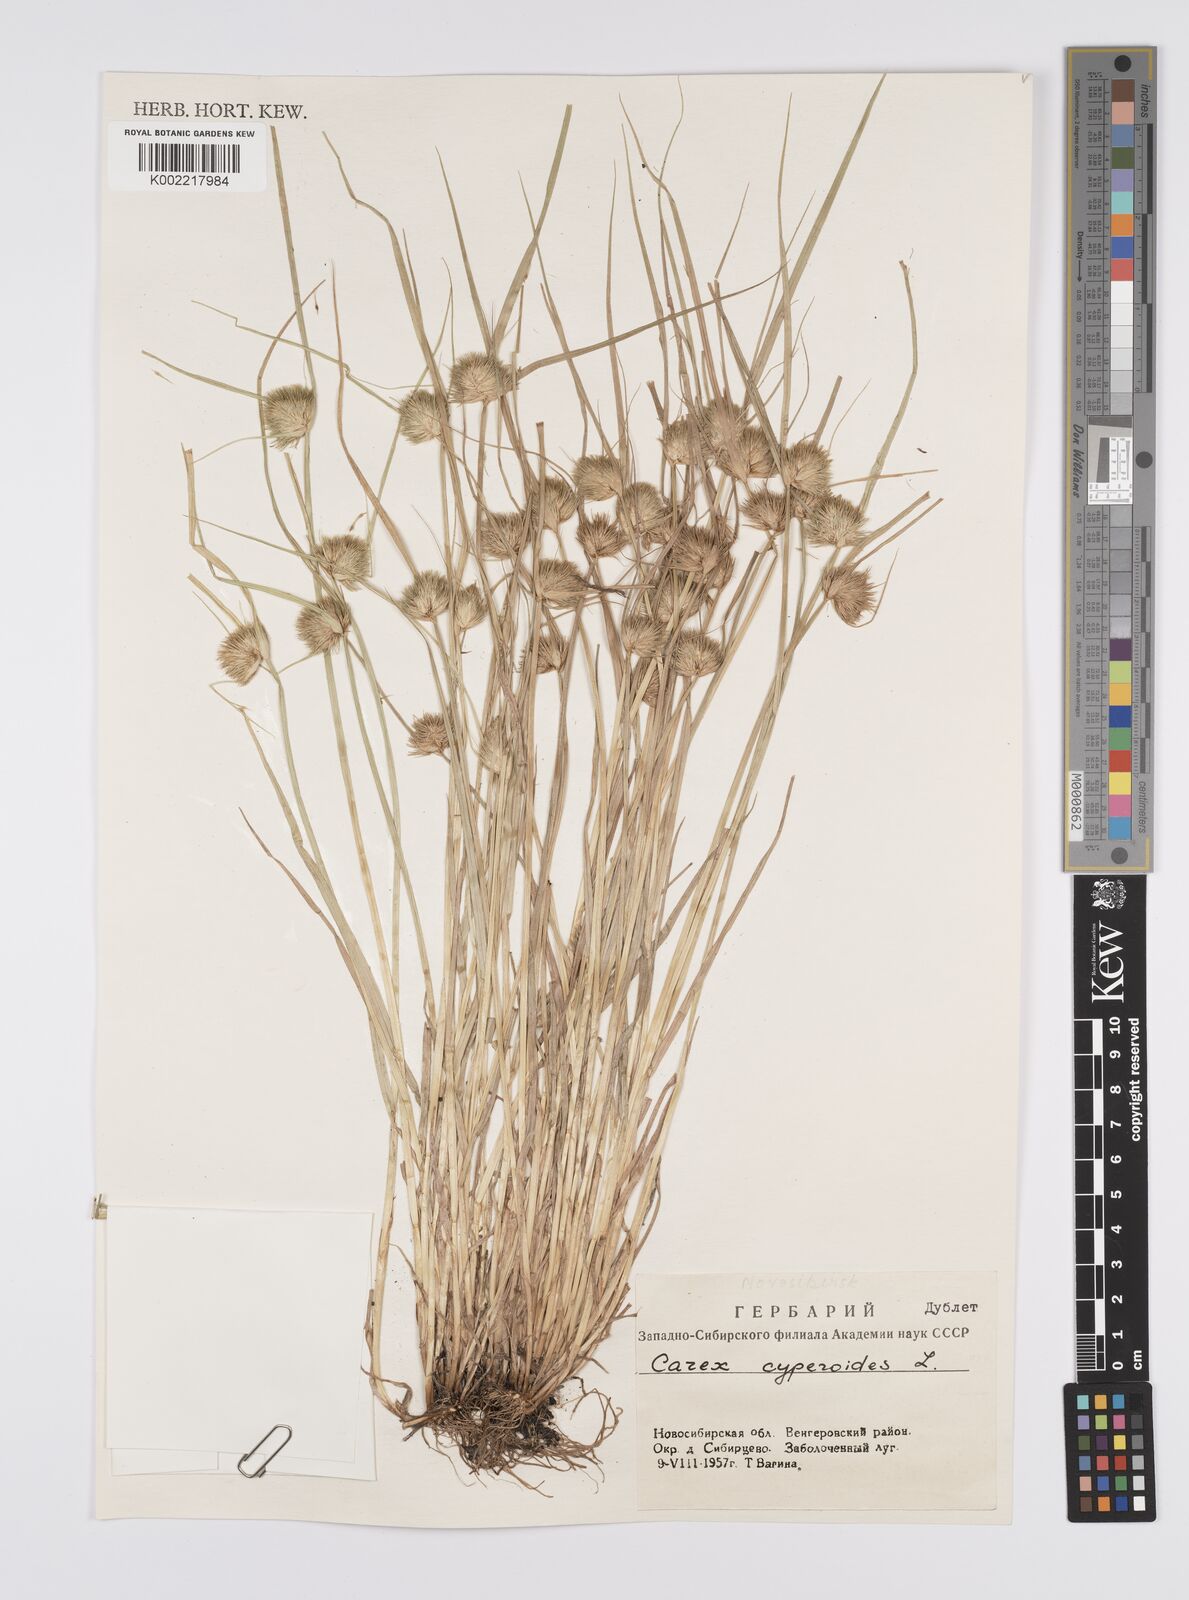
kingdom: Plantae
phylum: Tracheophyta
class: Liliopsida
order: Poales
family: Cyperaceae
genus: Carex
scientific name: Carex bohemica
